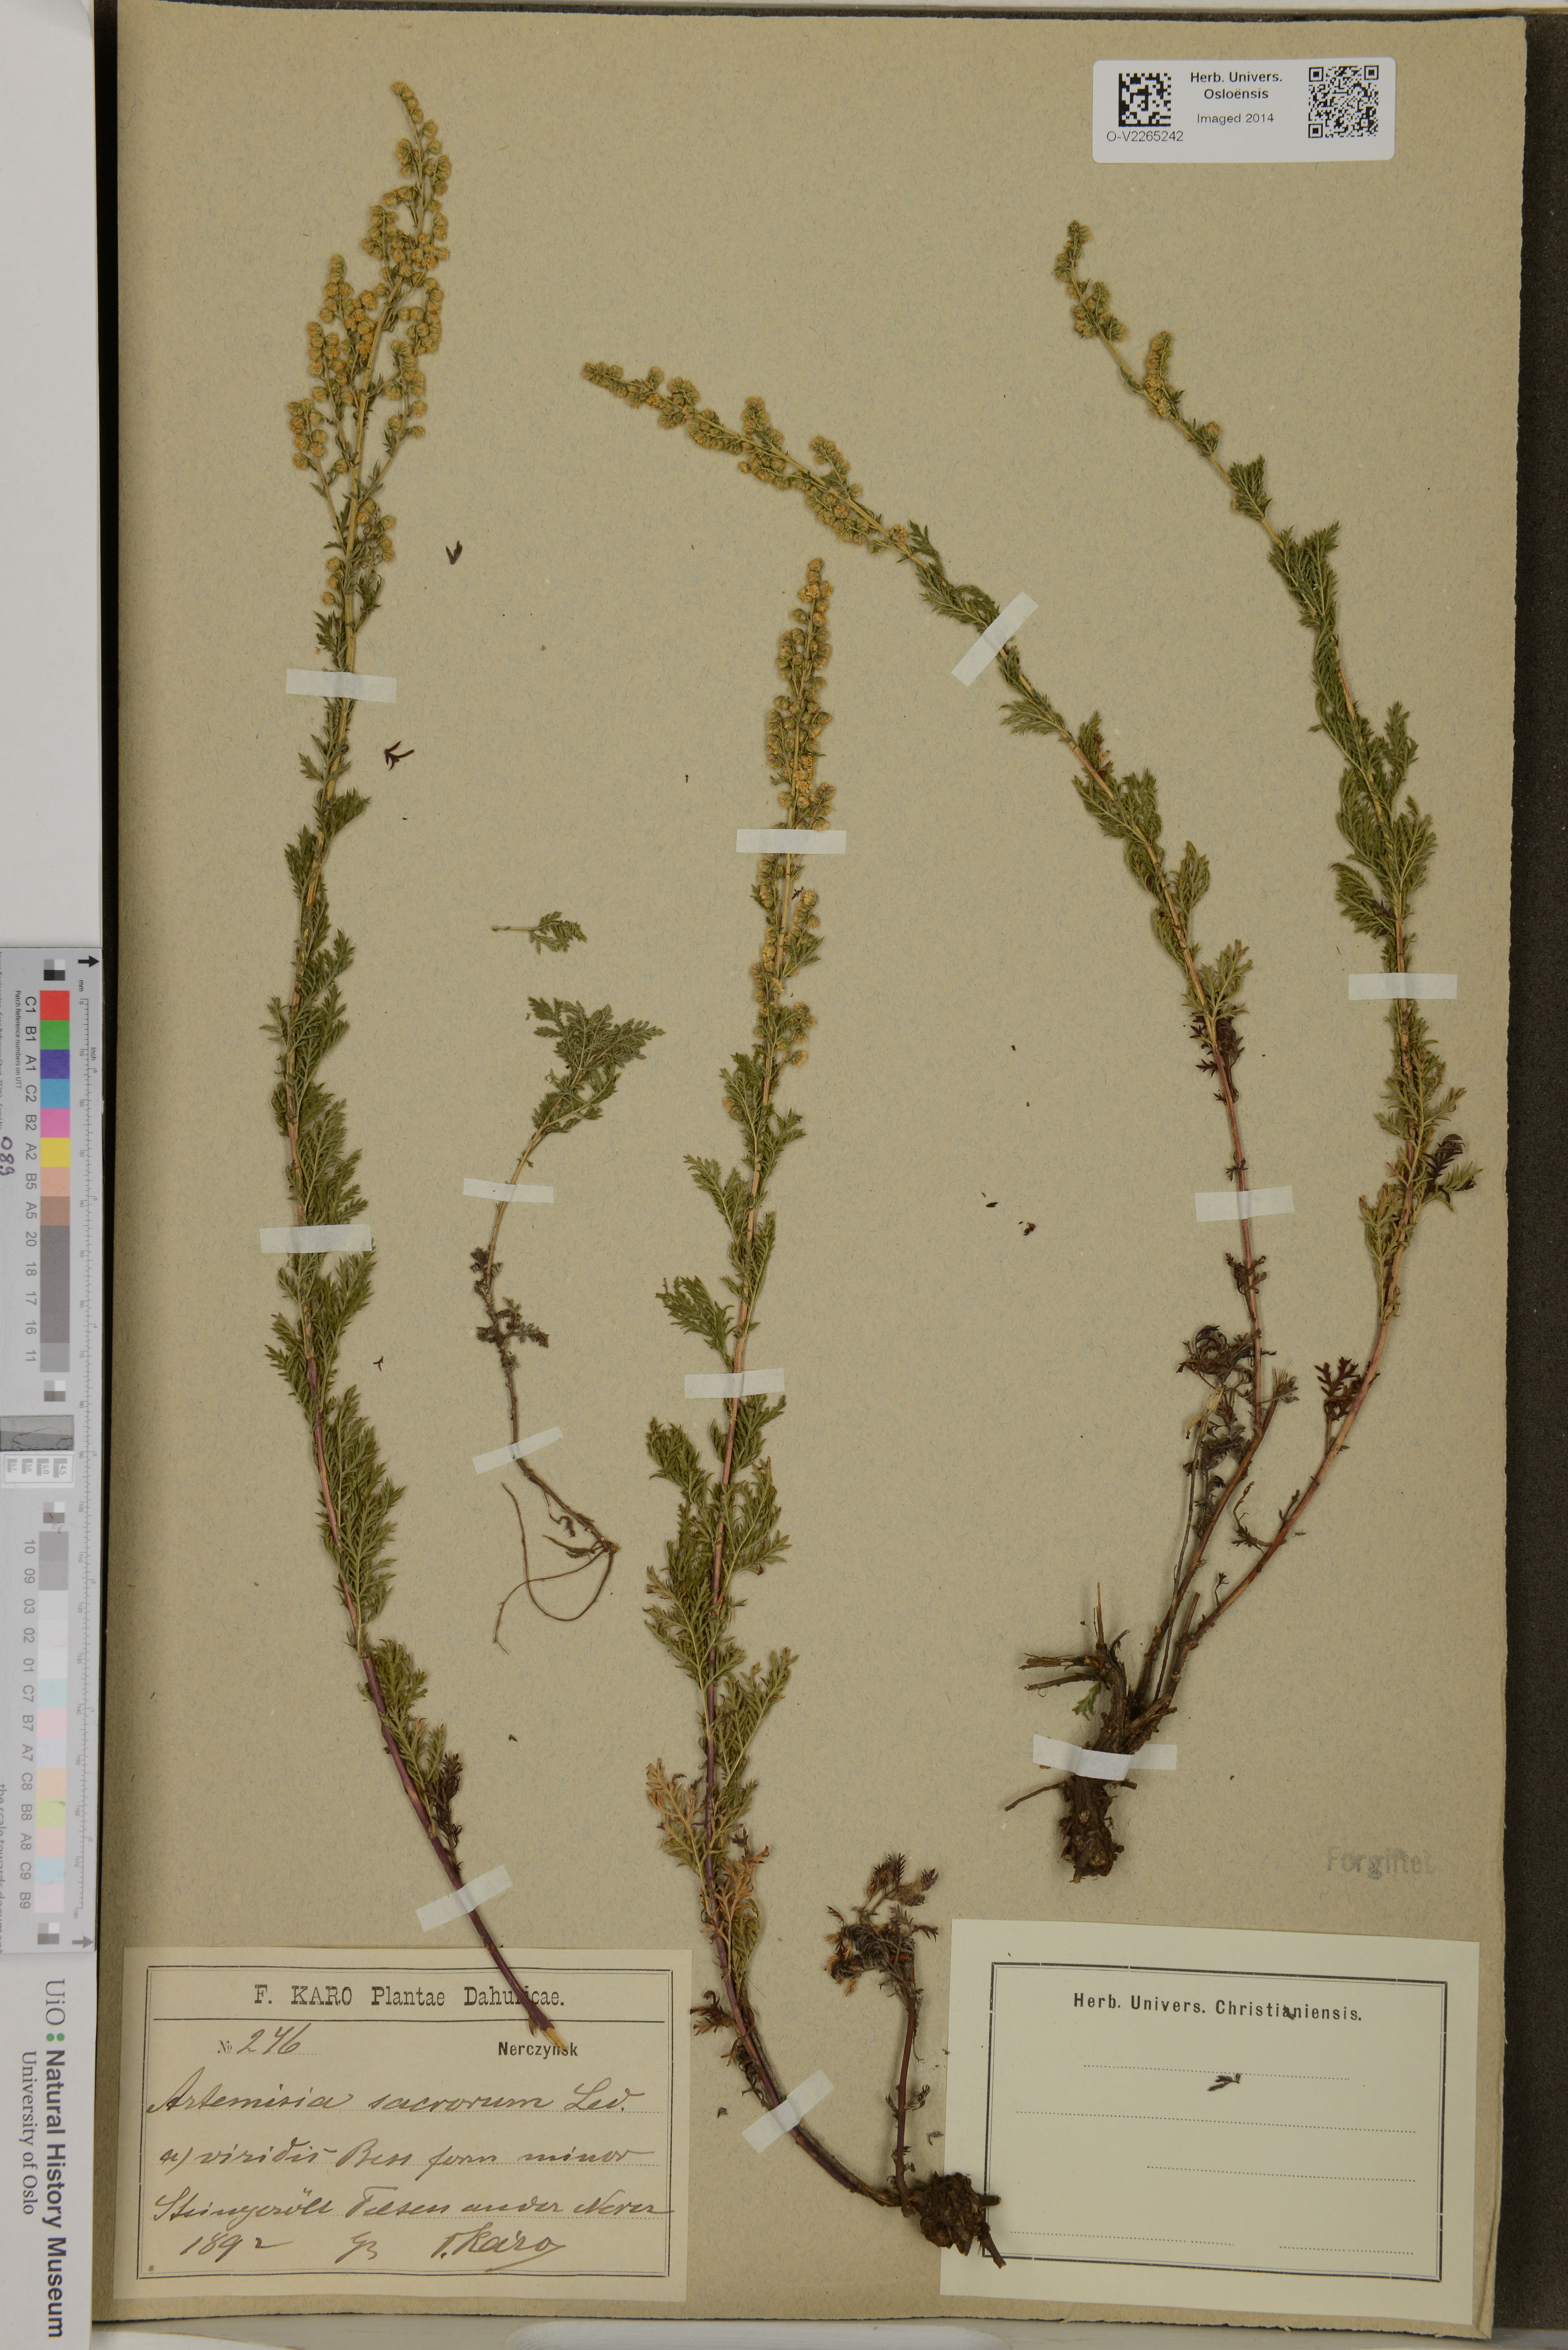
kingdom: Plantae
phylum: Tracheophyta
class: Magnoliopsida
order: Asterales
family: Asteraceae
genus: Artemisia
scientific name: Artemisia sacrorum
